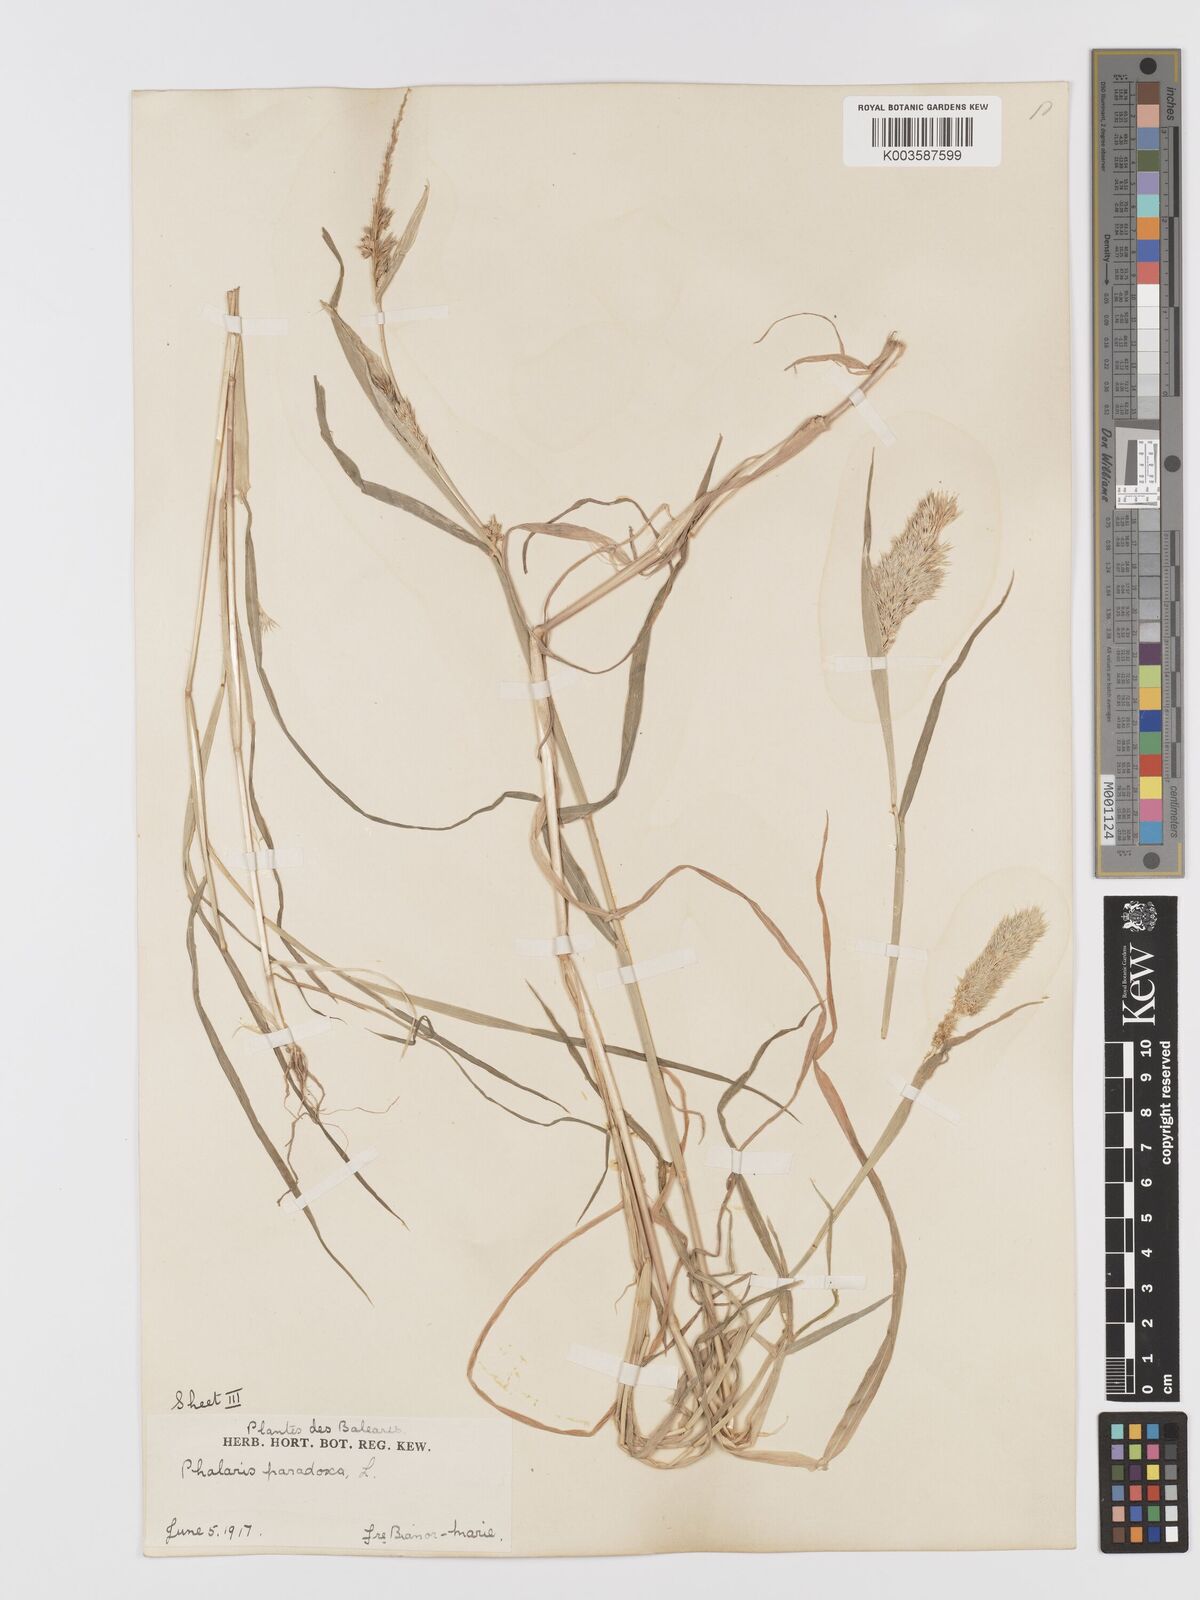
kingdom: Plantae
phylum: Tracheophyta
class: Liliopsida
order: Poales
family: Poaceae
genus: Phalaris
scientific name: Phalaris paradoxa
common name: Awned canary-grass
